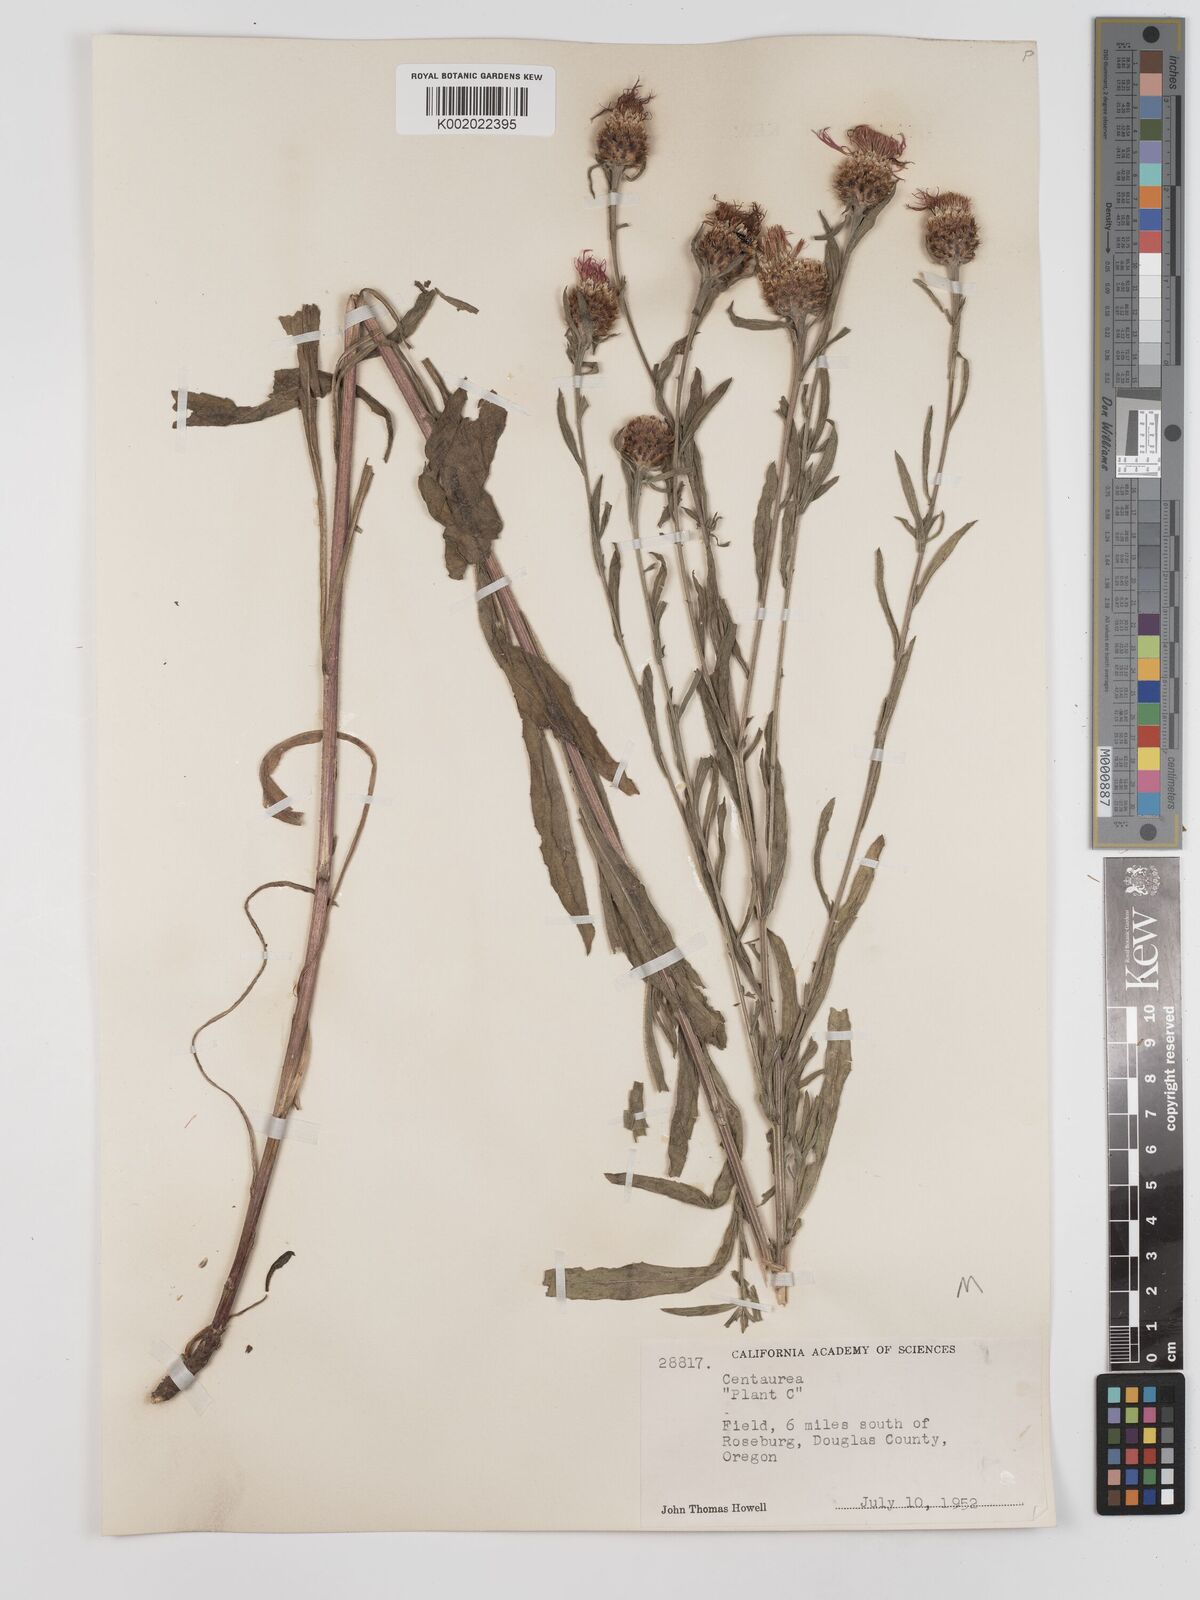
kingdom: Plantae
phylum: Tracheophyta
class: Magnoliopsida
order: Asterales
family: Asteraceae
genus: Centaurea
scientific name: Centaurea jacea
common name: Brown knapweed
